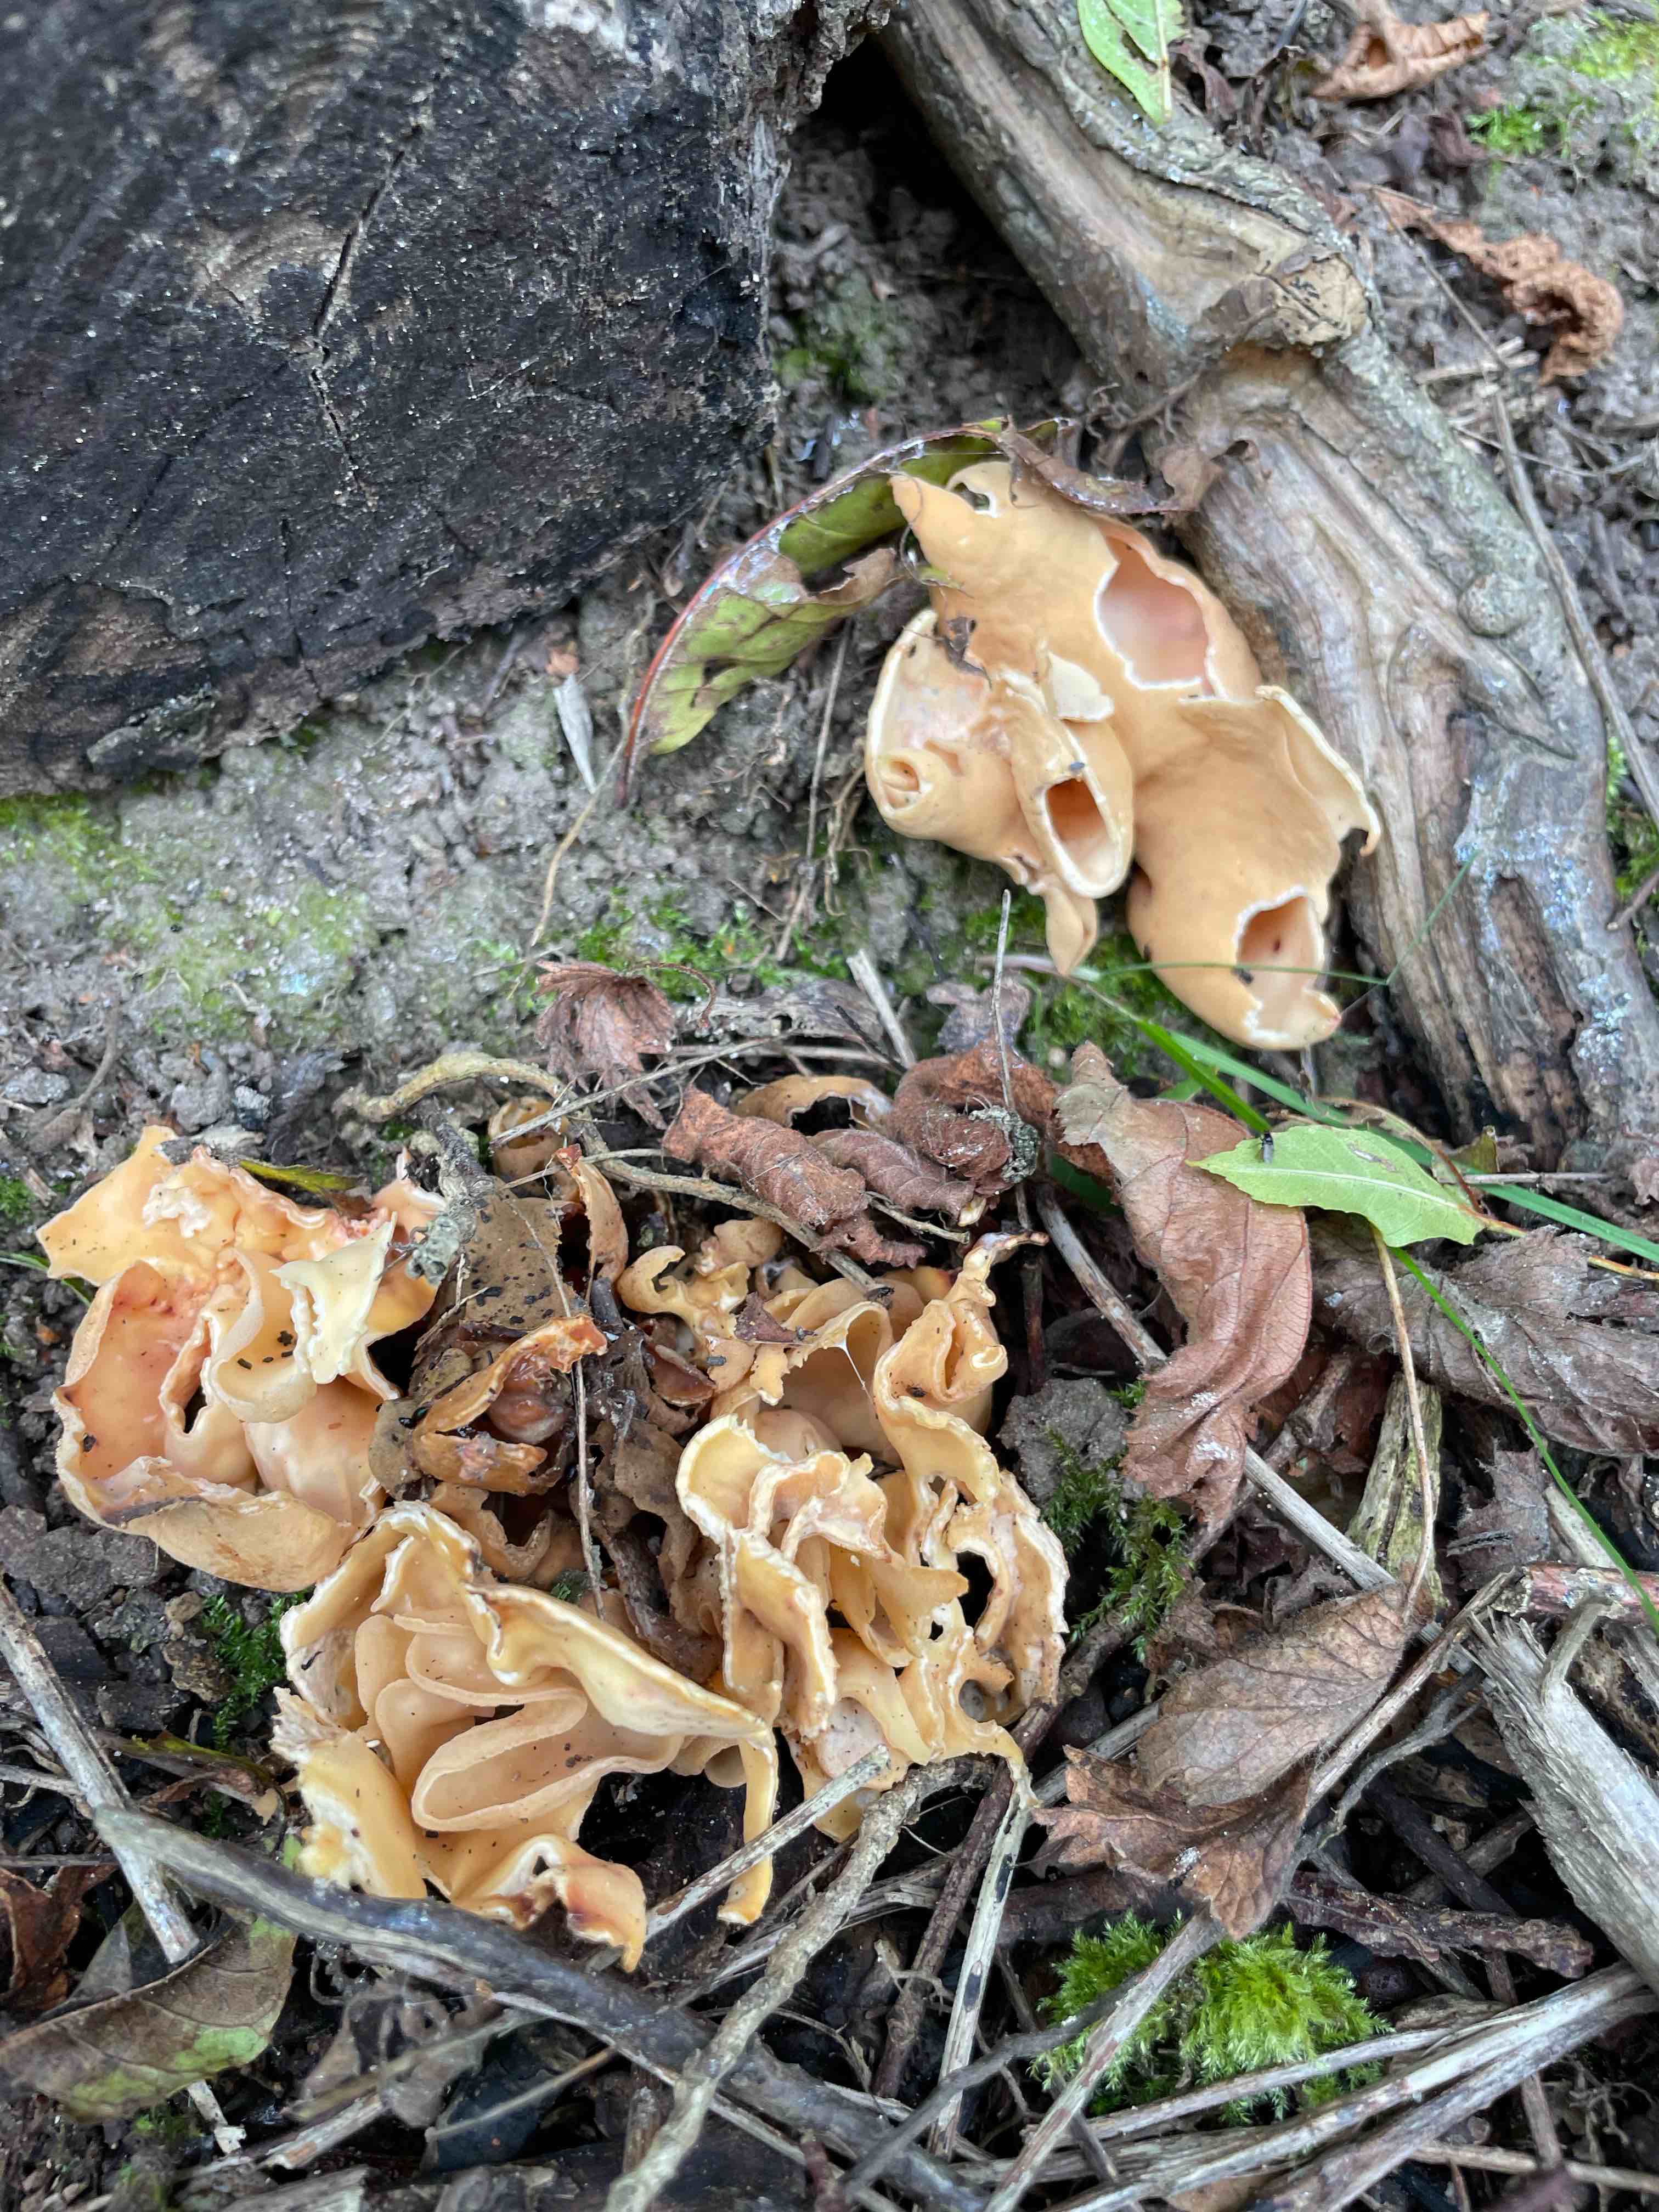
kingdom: Fungi
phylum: Ascomycota
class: Pezizomycetes
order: Pezizales
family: Otideaceae
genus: Otidea
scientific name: Otidea onotica
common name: æsel-ørebæger
